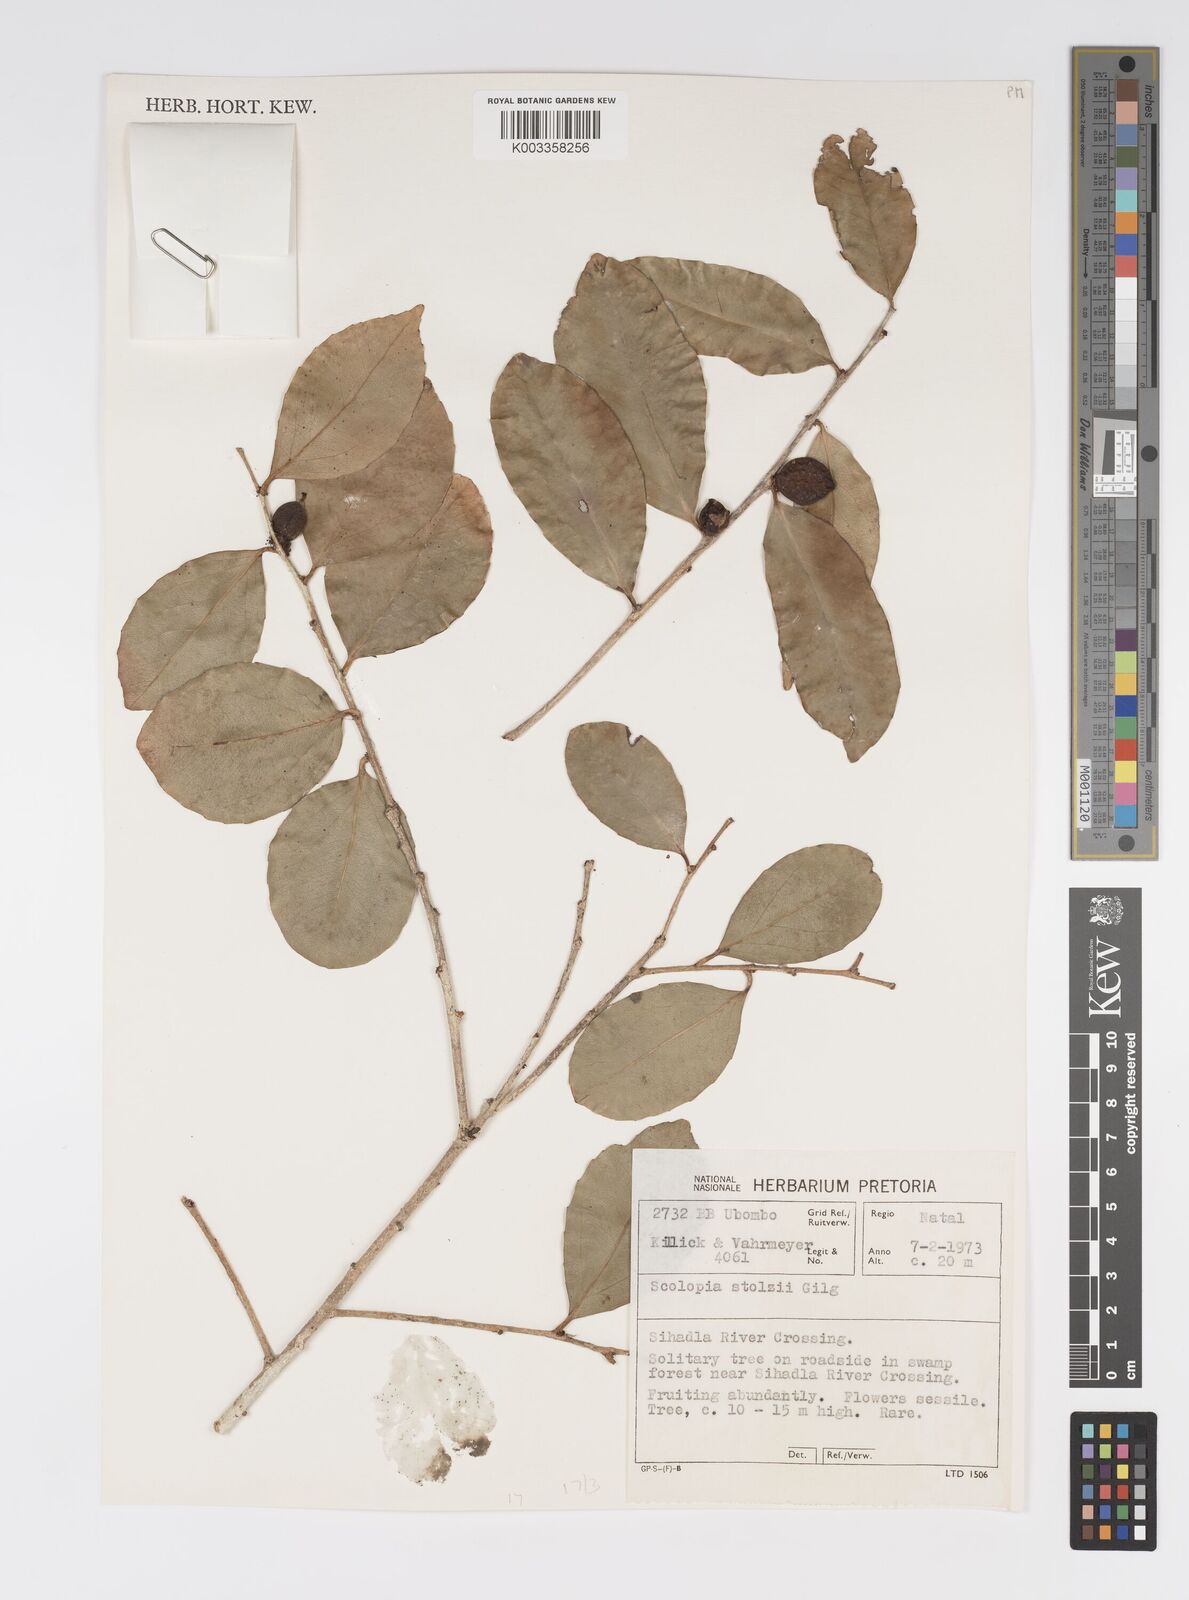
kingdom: Plantae
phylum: Tracheophyta
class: Magnoliopsida
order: Malpighiales
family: Salicaceae
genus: Scolopia
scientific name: Scolopia stolzii
